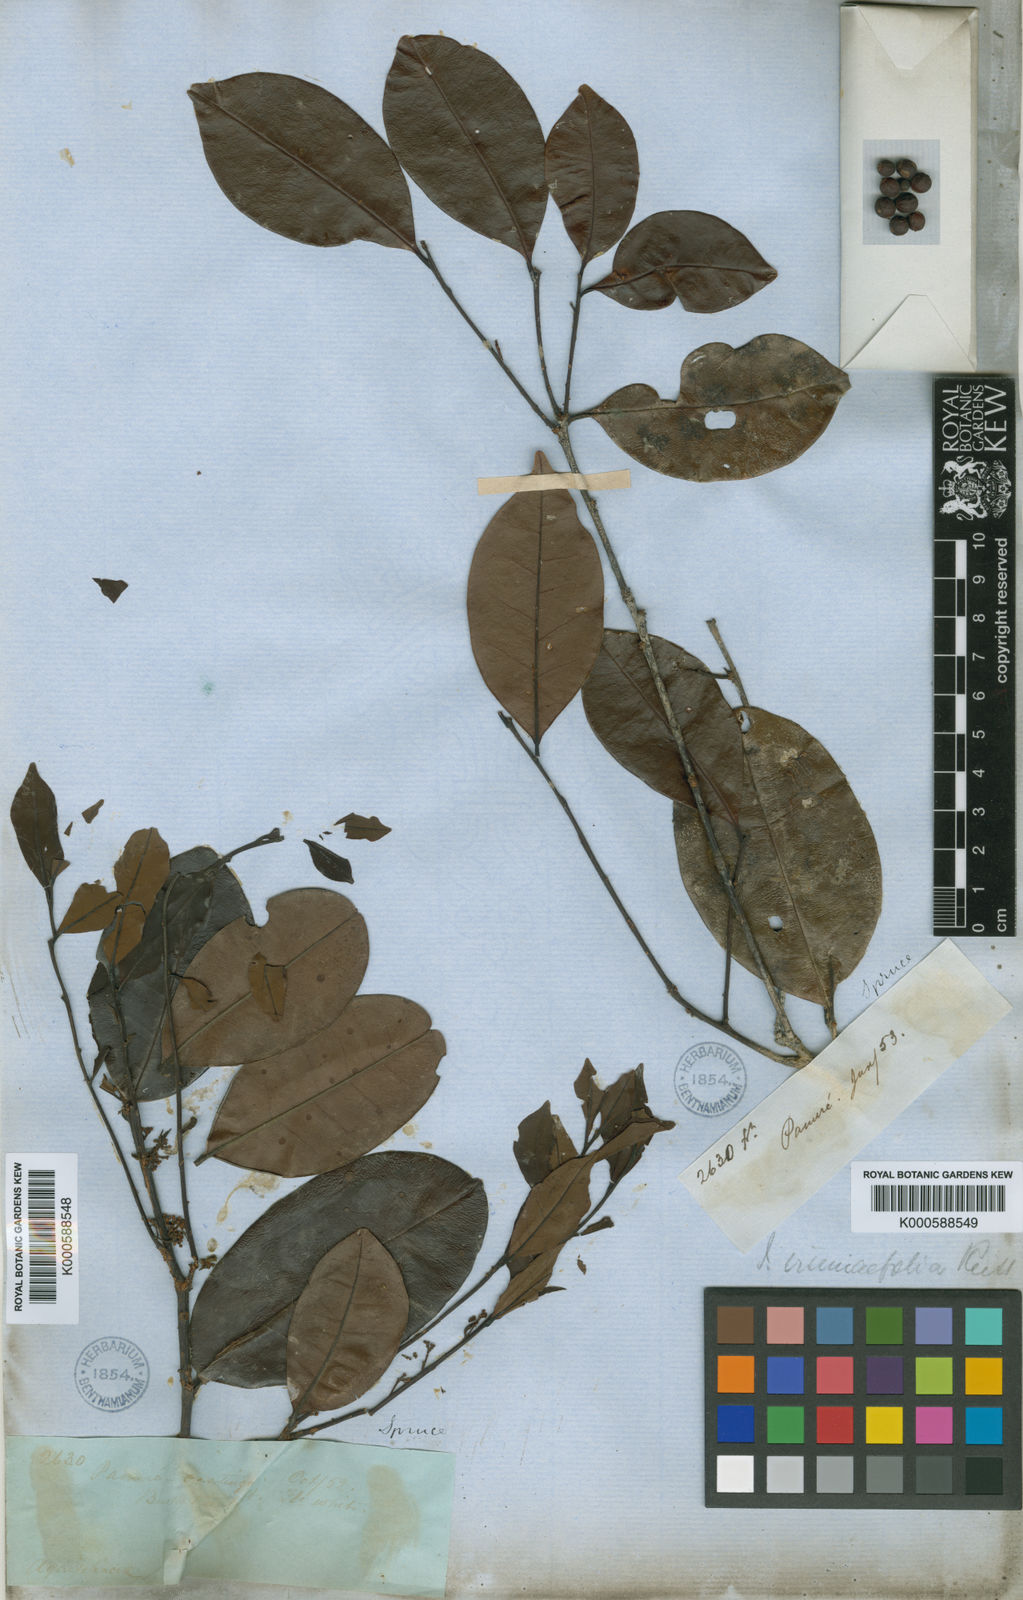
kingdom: Plantae
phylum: Tracheophyta
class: Magnoliopsida
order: Aquifoliales
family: Aquifoliaceae
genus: Ilex
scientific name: Ilex vismiifolia
